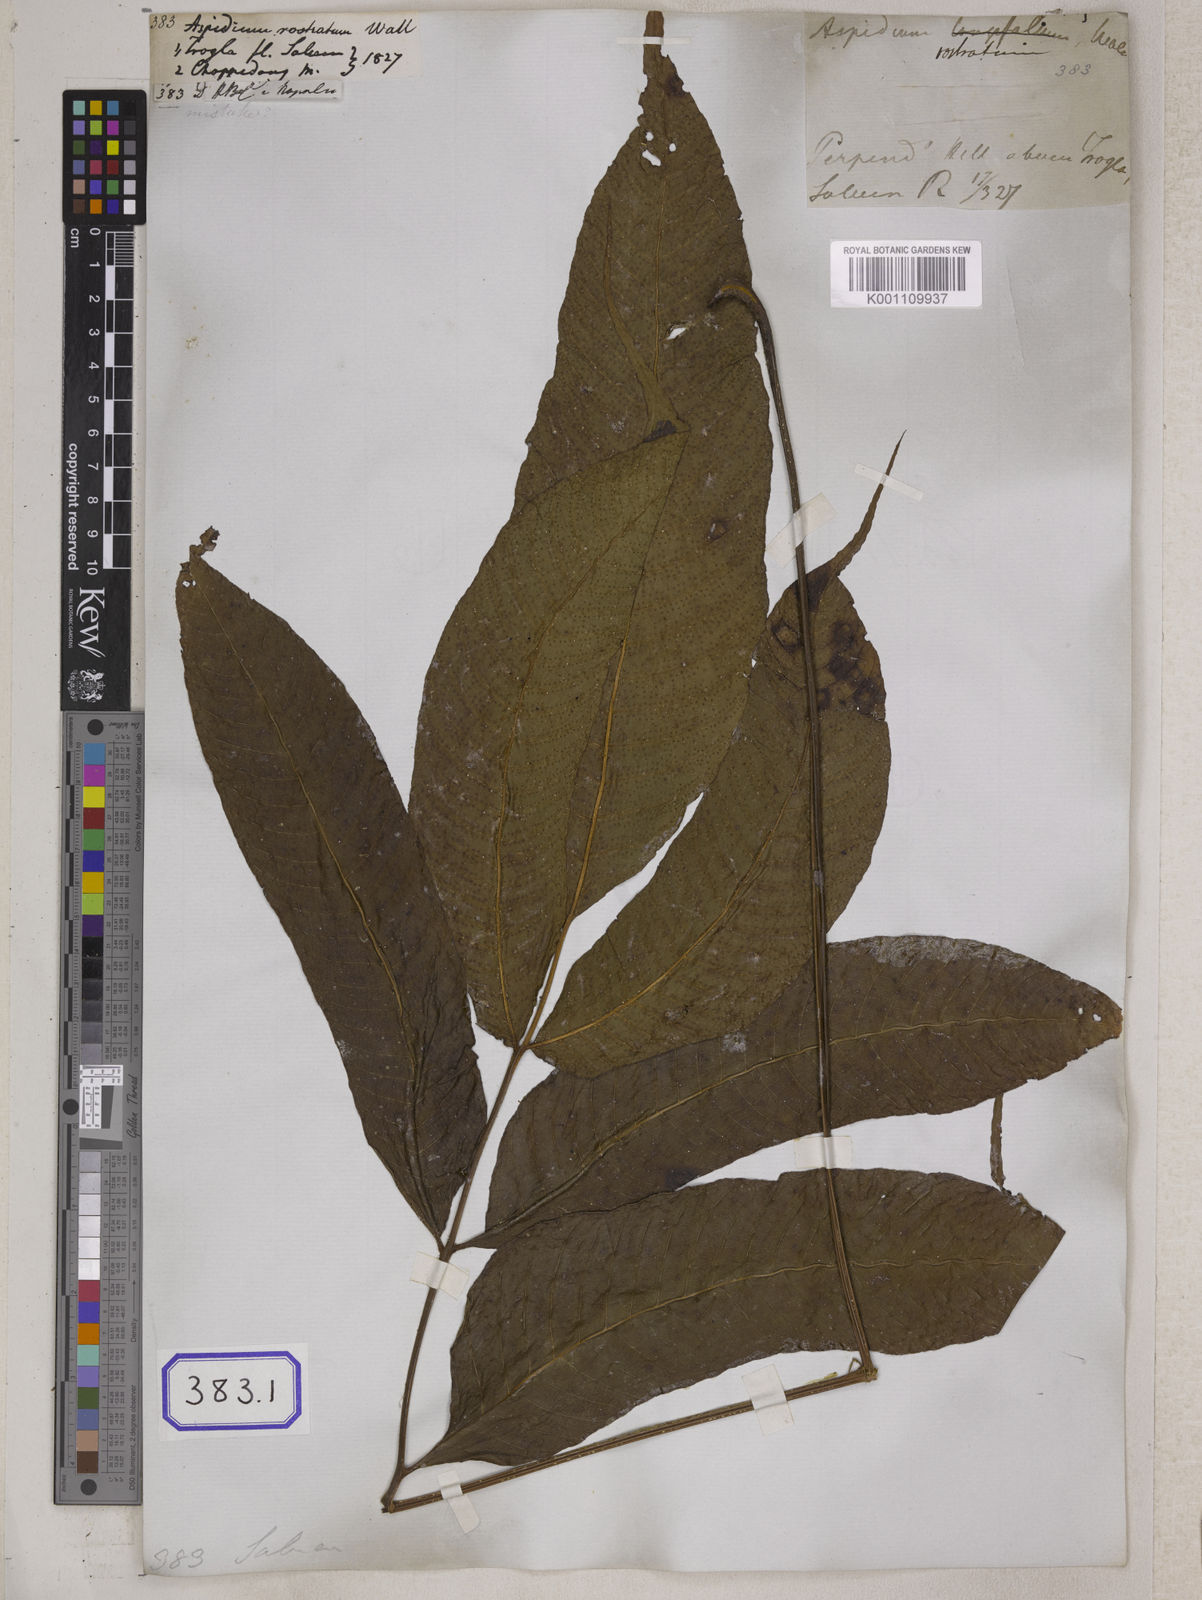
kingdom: Plantae
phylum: Tracheophyta
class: Polypodiopsida
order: Polypodiales
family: Tectariaceae
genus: Tectaria
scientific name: Tectaria polymorpha
